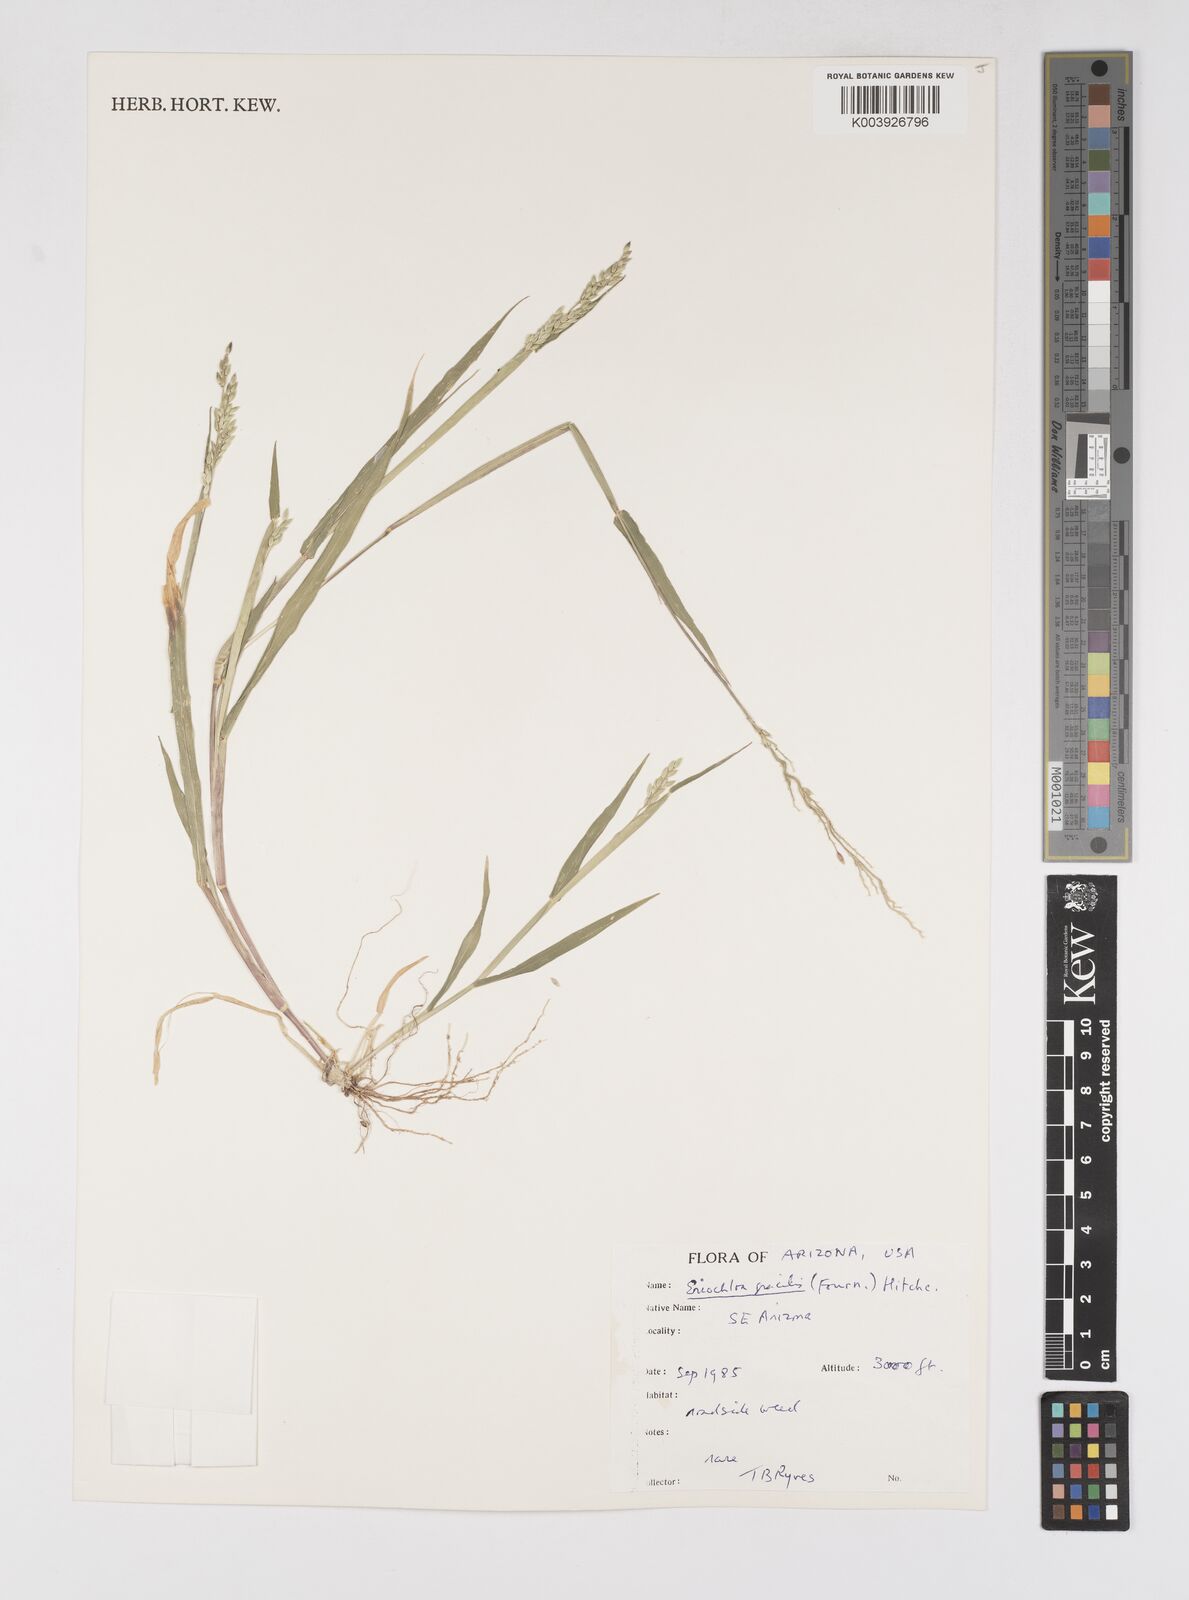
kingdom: Plantae
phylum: Tracheophyta
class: Liliopsida
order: Poales
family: Poaceae
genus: Eriochloa
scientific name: Eriochloa acuminata
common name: Southwestern cup grass
